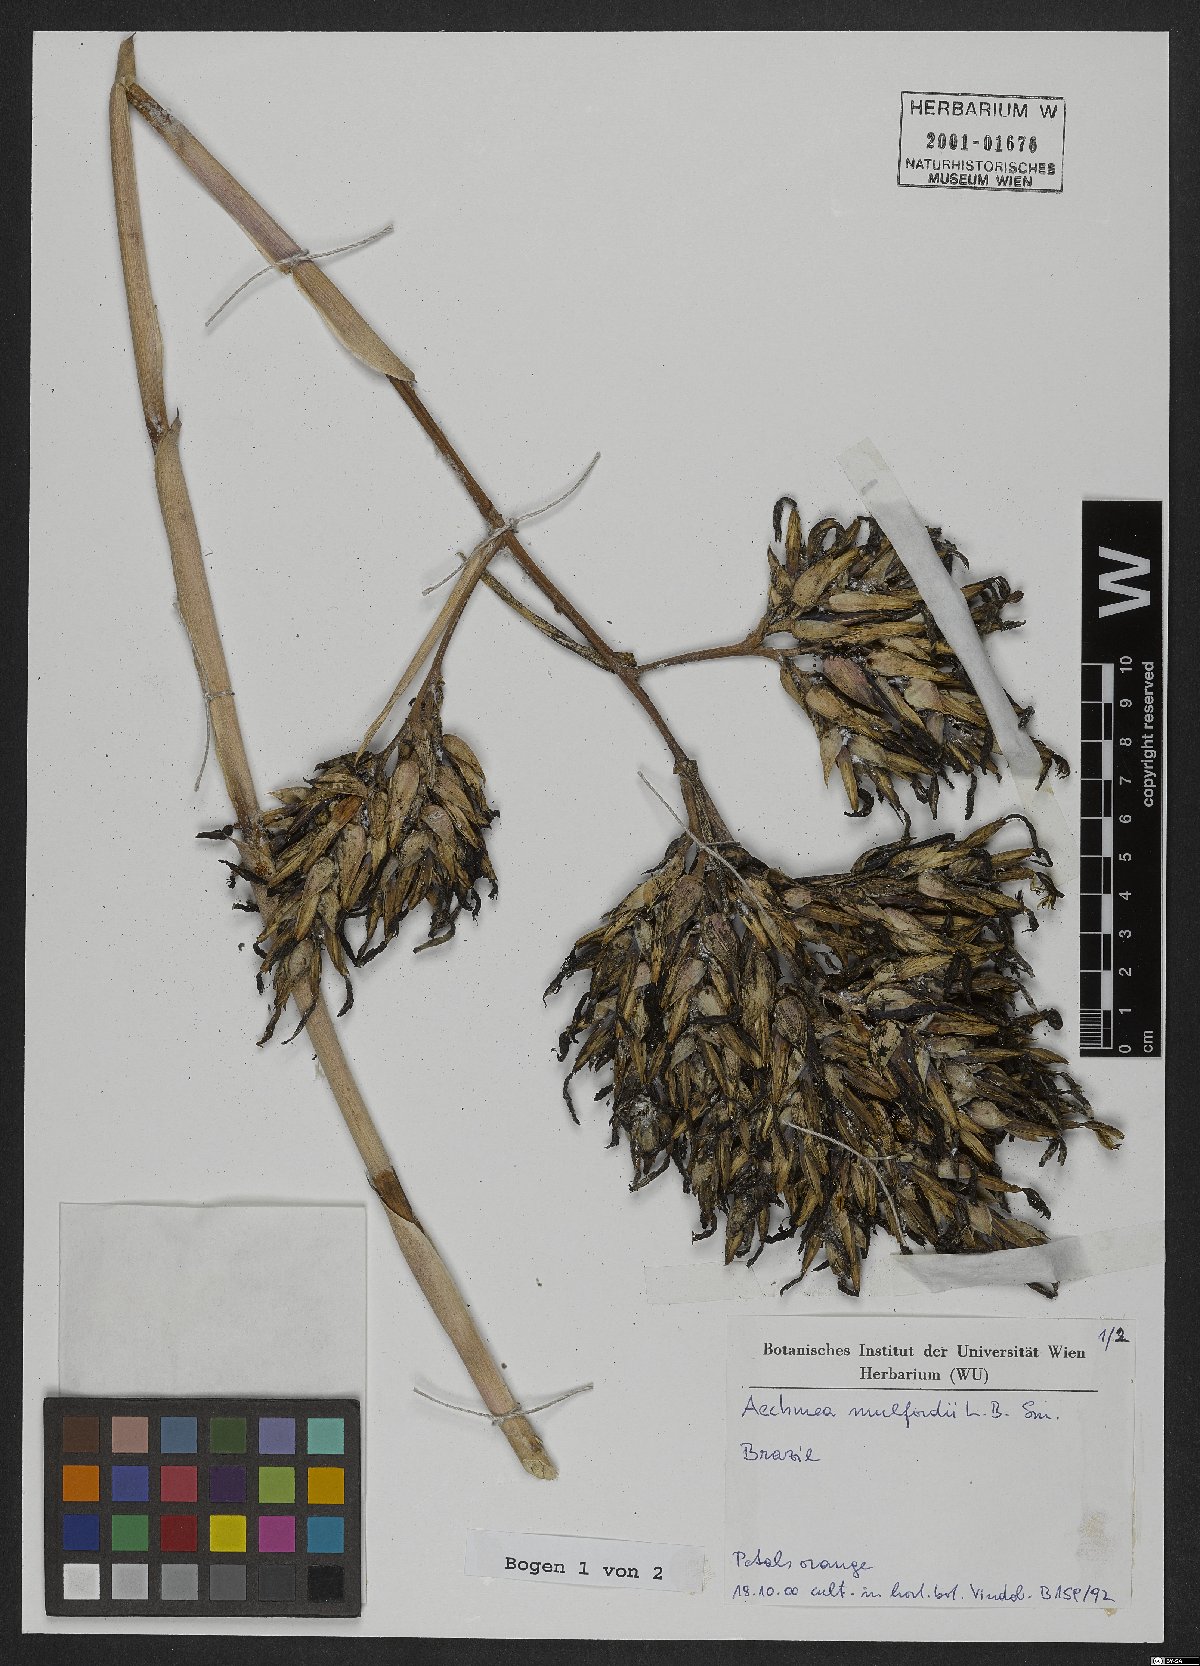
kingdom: Plantae
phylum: Tracheophyta
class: Liliopsida
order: Poales
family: Bromeliaceae
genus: Karawata
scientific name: Karawata multiflora
